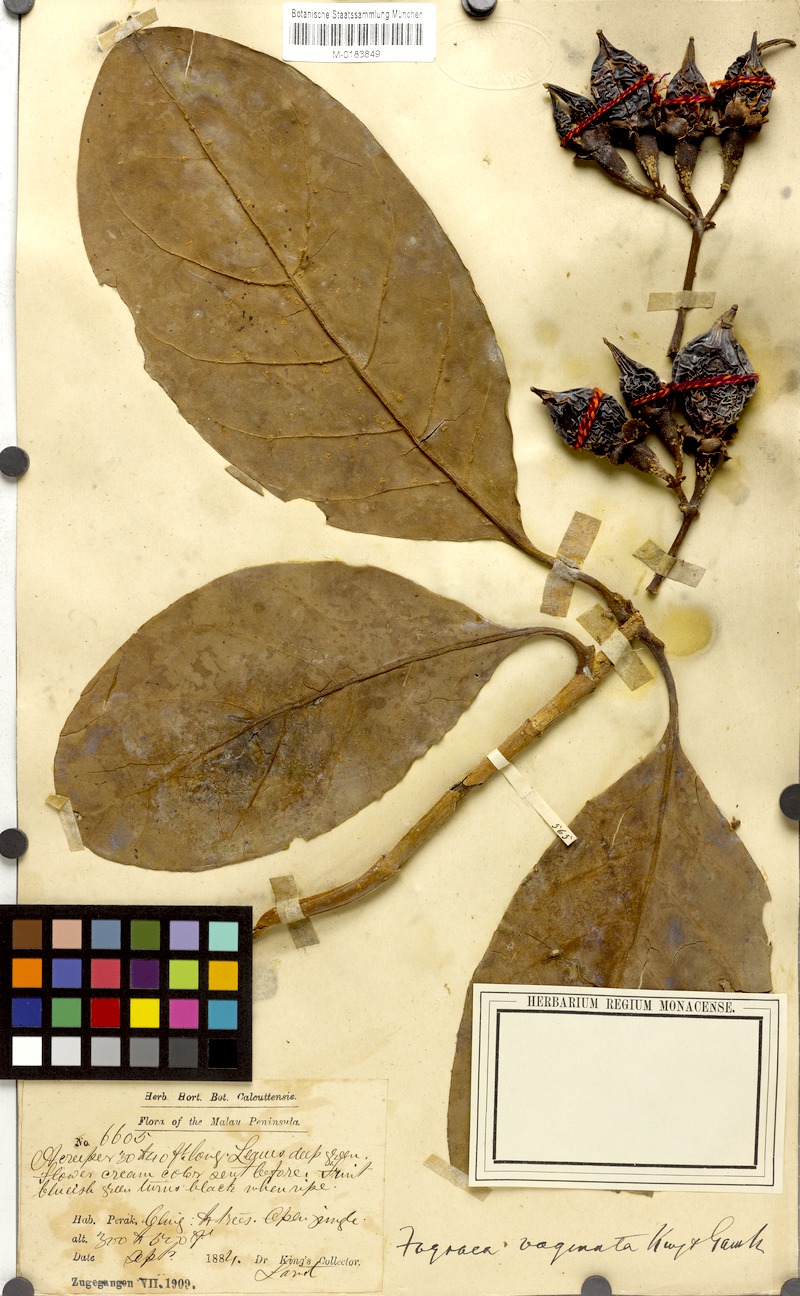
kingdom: Plantae
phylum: Tracheophyta
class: Magnoliopsida
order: Gentianales
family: Gentianaceae
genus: Fagraea
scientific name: Fagraea blumei
